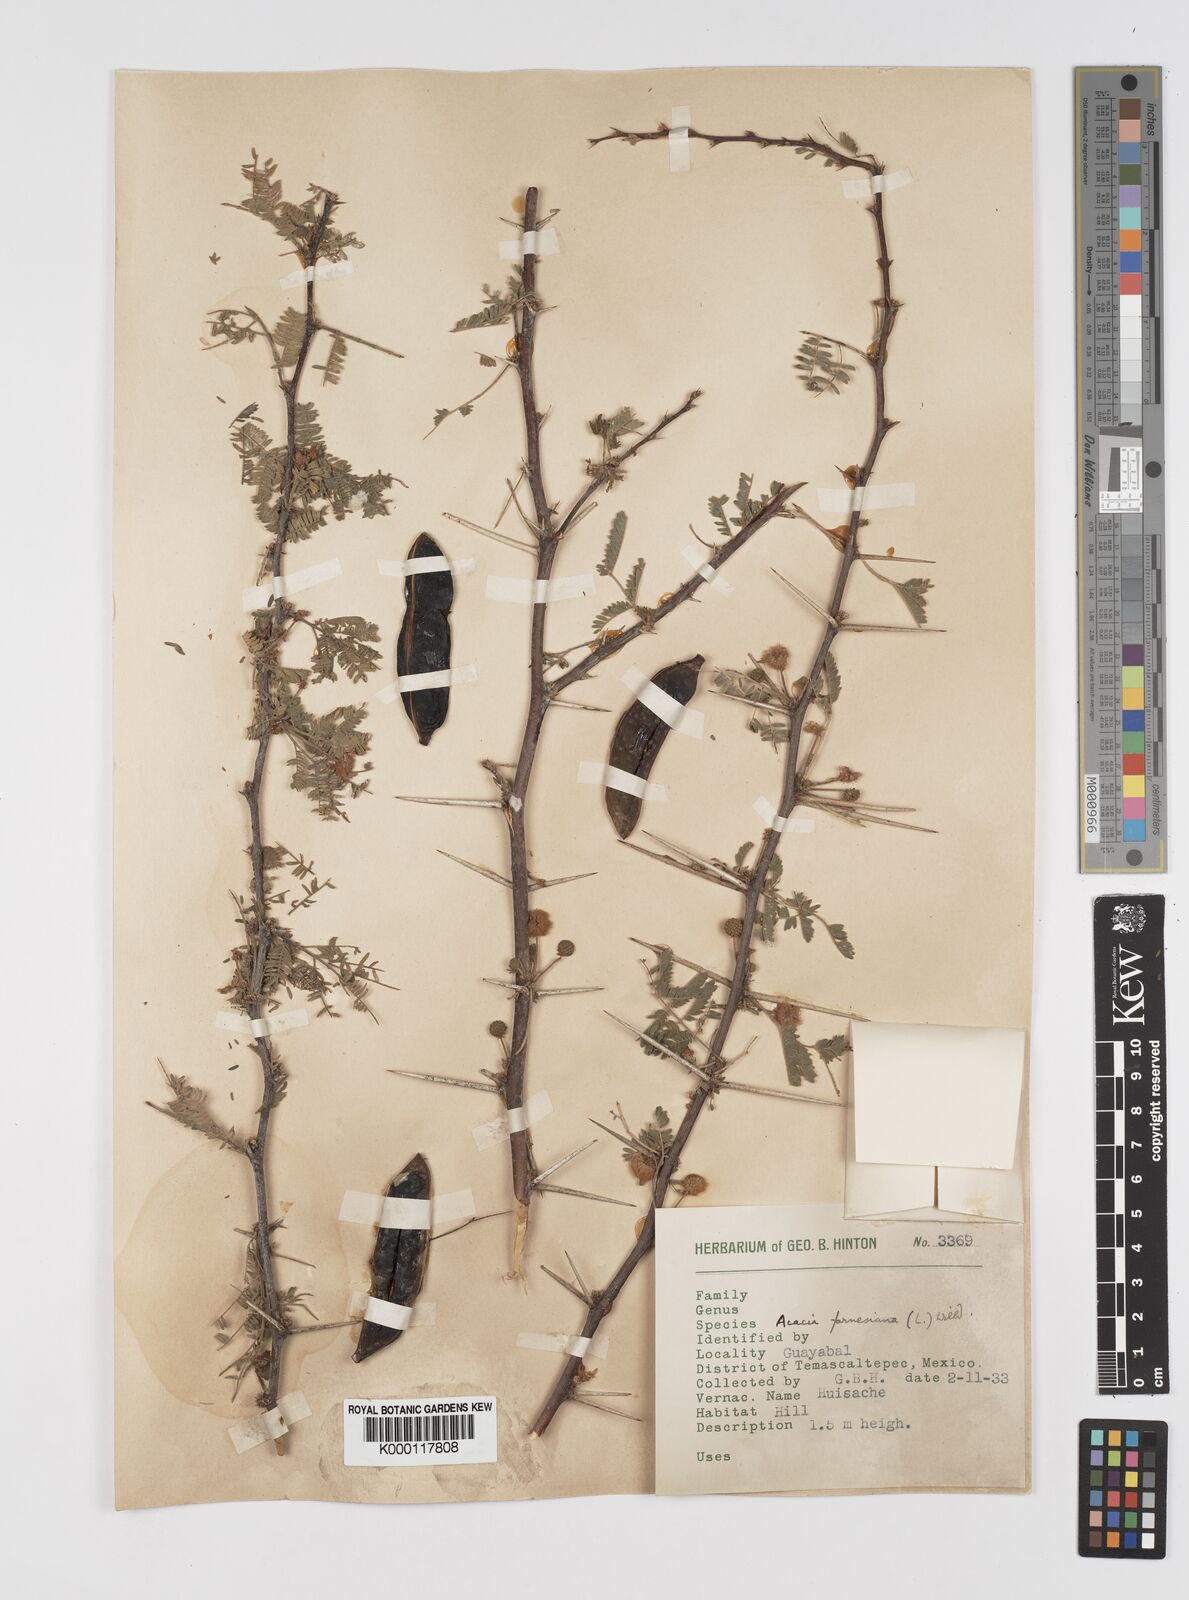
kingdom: Plantae
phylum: Tracheophyta
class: Magnoliopsida
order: Fabales
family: Fabaceae
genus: Vachellia
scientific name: Vachellia farnesiana
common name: Sweet acacia
